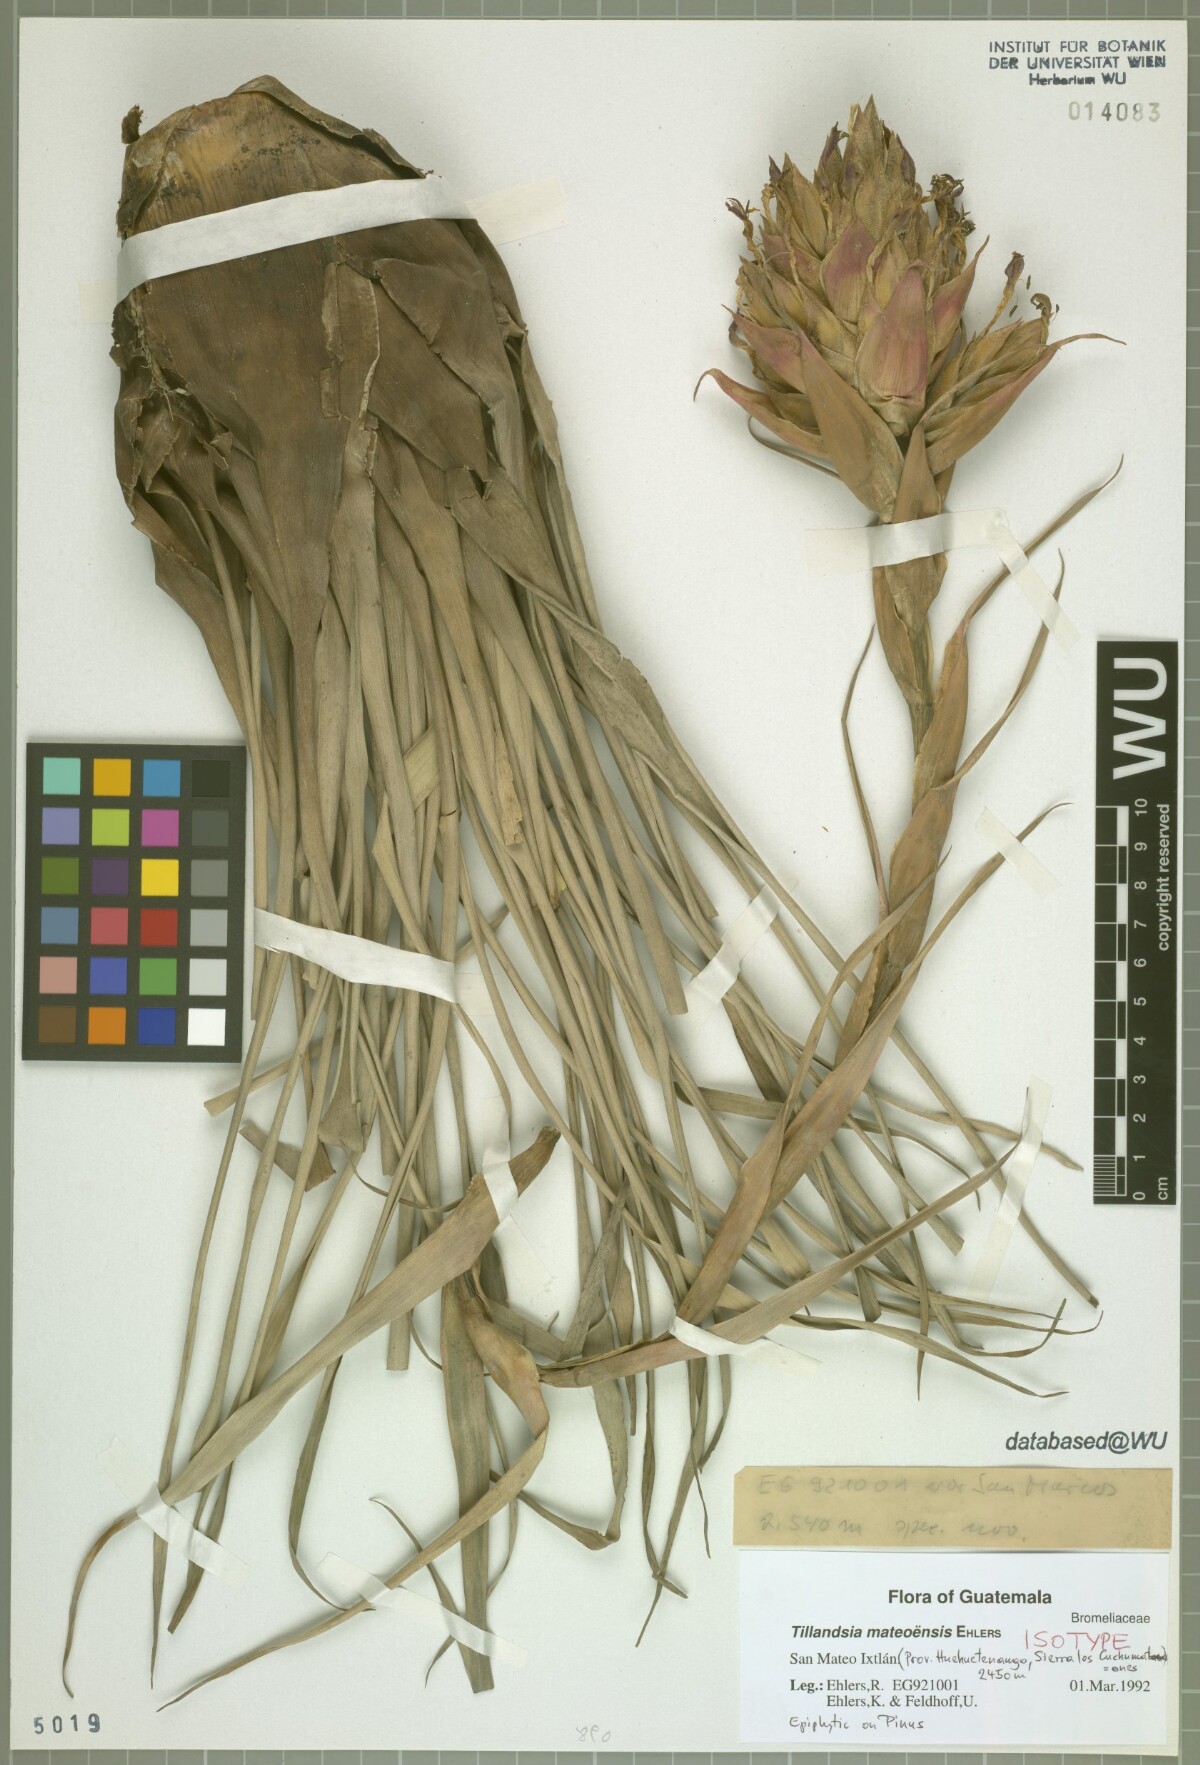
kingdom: Plantae
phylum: Tracheophyta
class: Liliopsida
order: Poales
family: Bromeliaceae
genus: Tillandsia
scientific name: Tillandsia mateoensis
